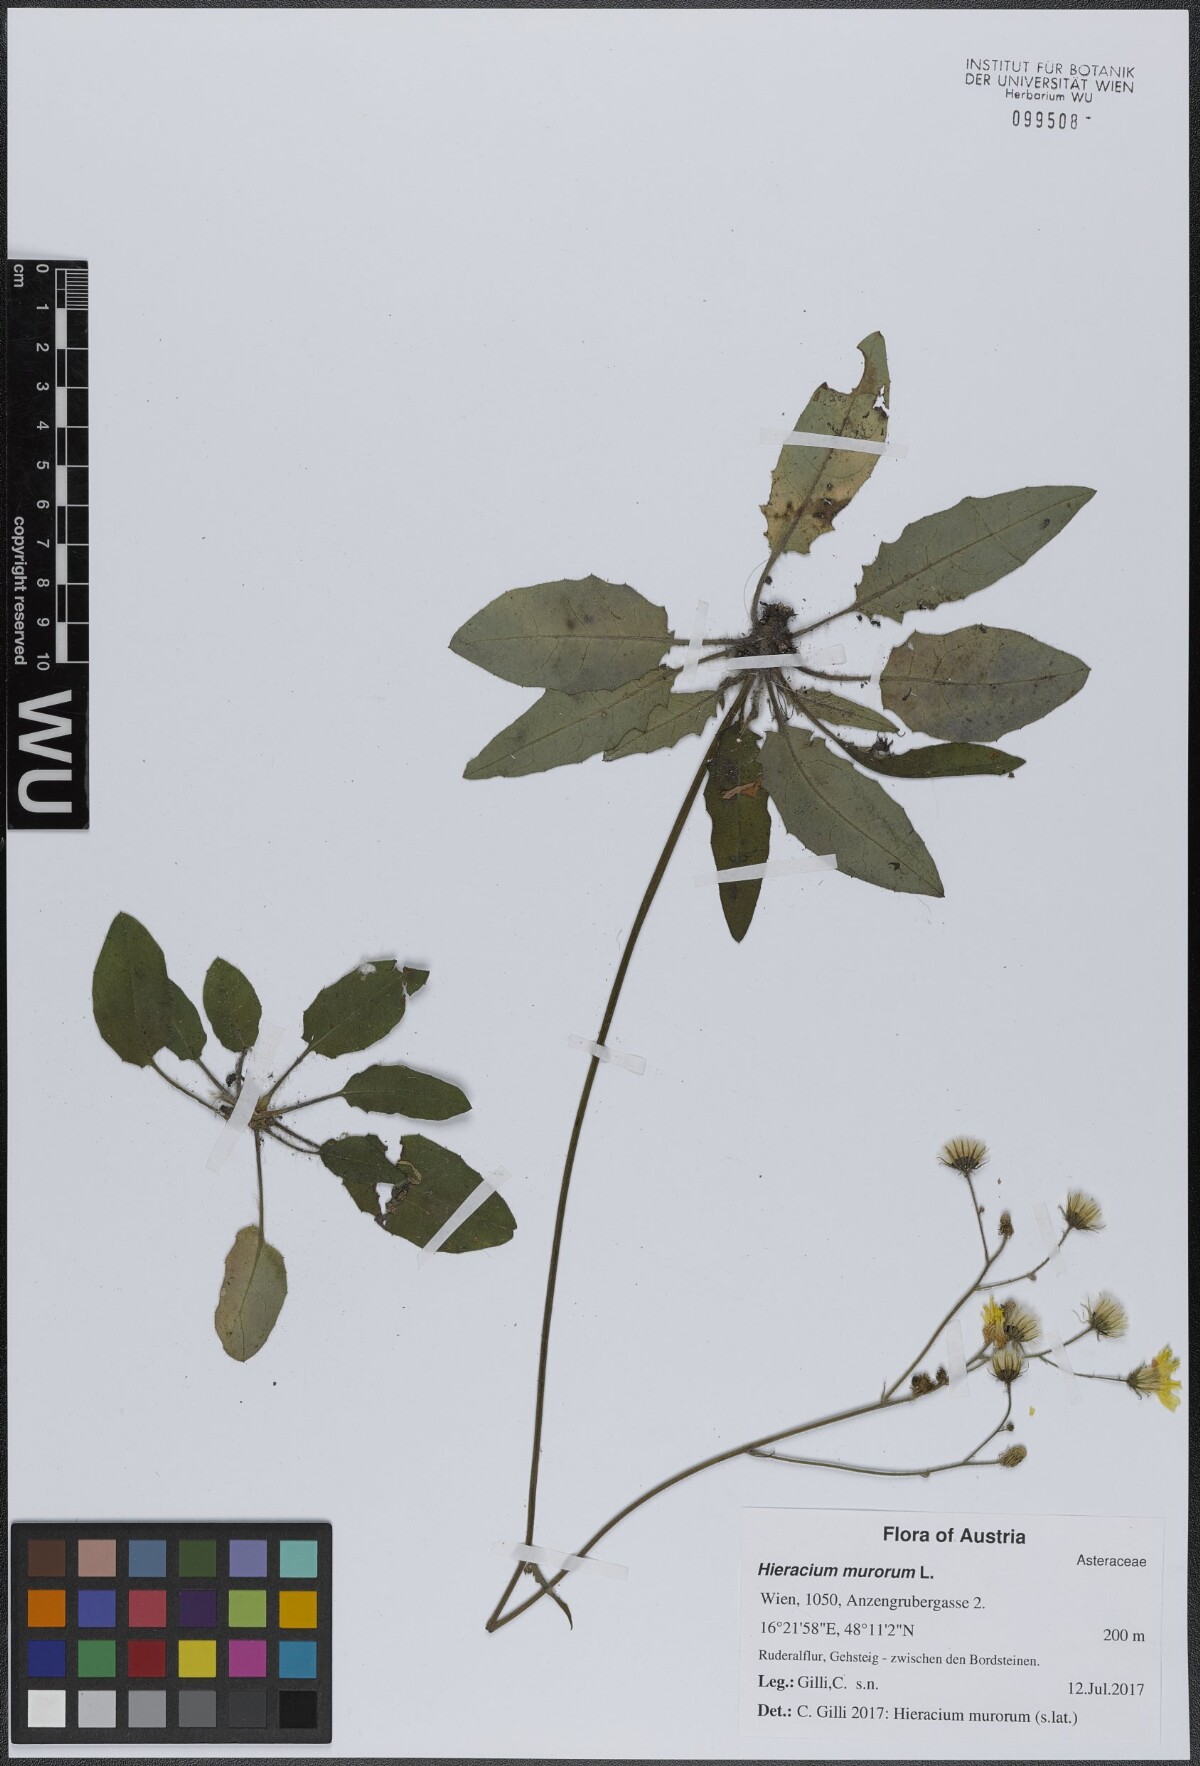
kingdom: Plantae
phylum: Tracheophyta
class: Magnoliopsida
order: Asterales
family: Asteraceae
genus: Hieracium
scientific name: Hieracium murorum
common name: Wall hawkweed
